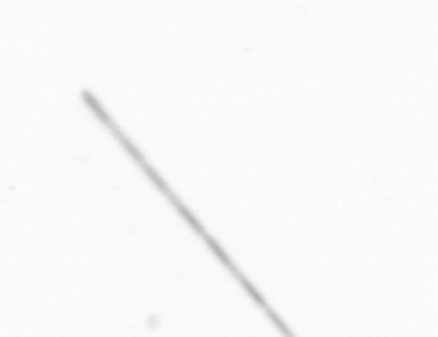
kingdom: Chromista
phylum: Ochrophyta
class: Bacillariophyceae
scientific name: Bacillariophyceae
